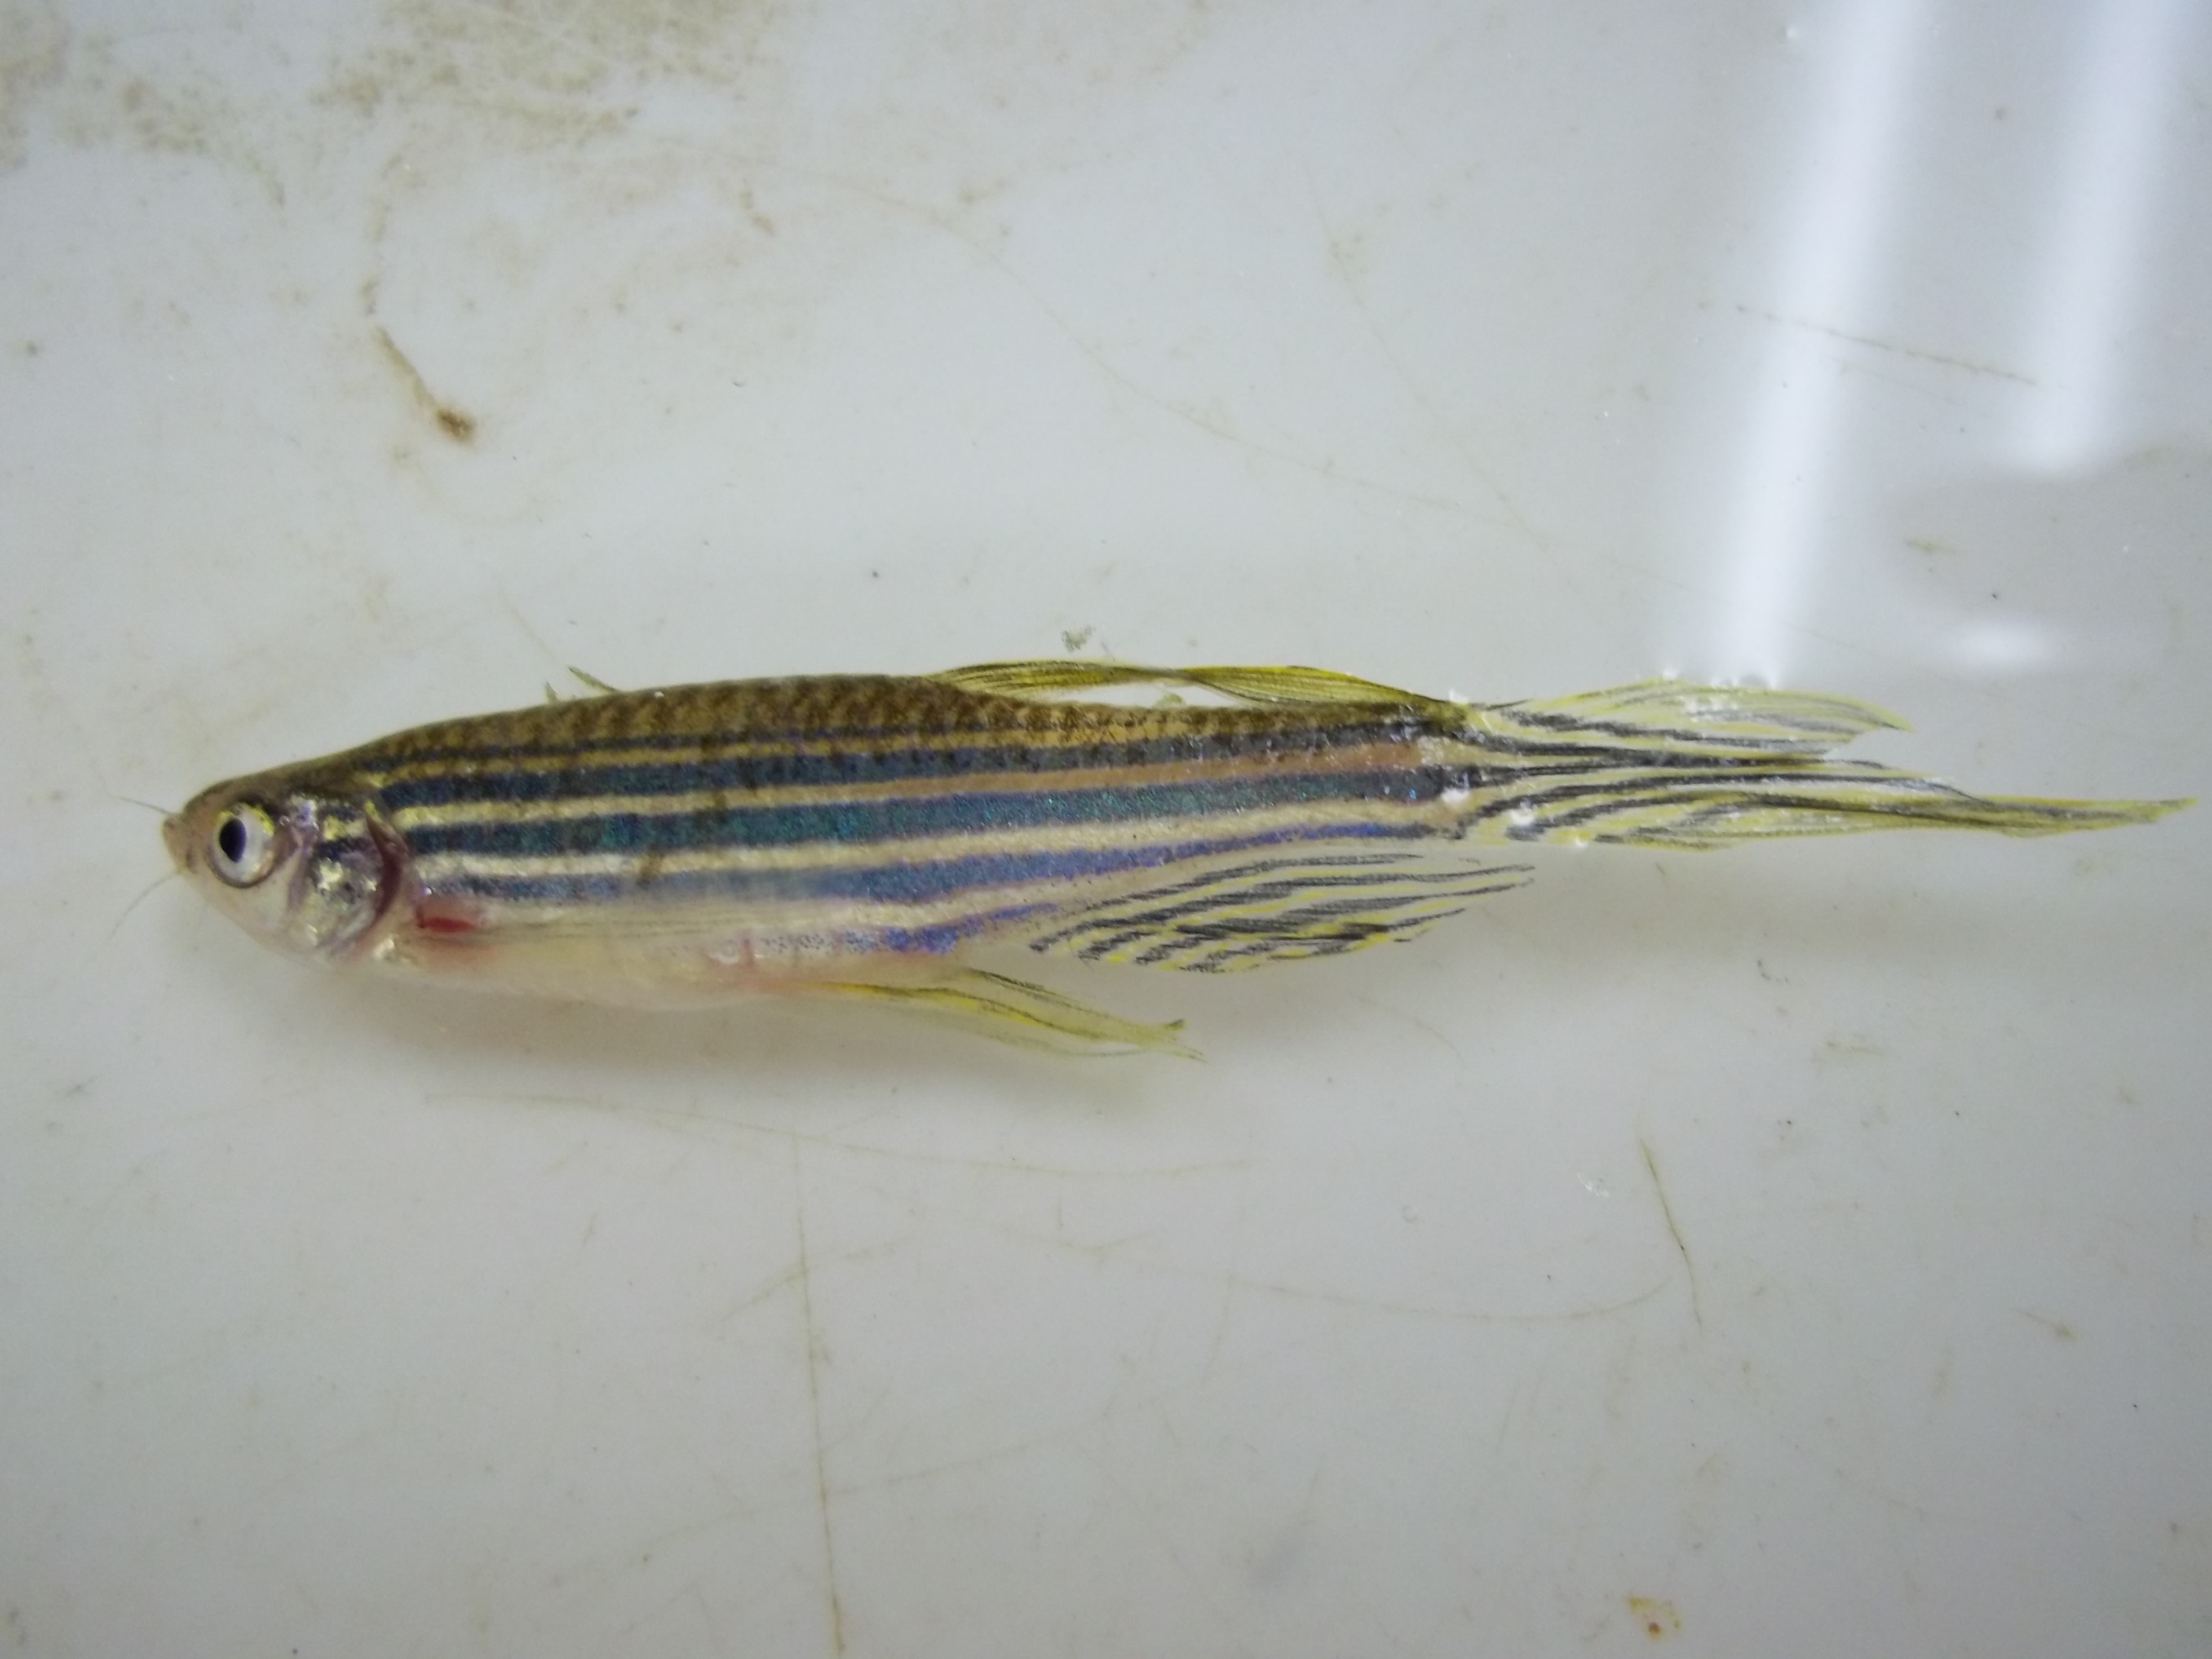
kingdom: Animalia
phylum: Chordata
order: Cypriniformes
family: Cyprinidae
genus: Danio
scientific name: Danio rerio
